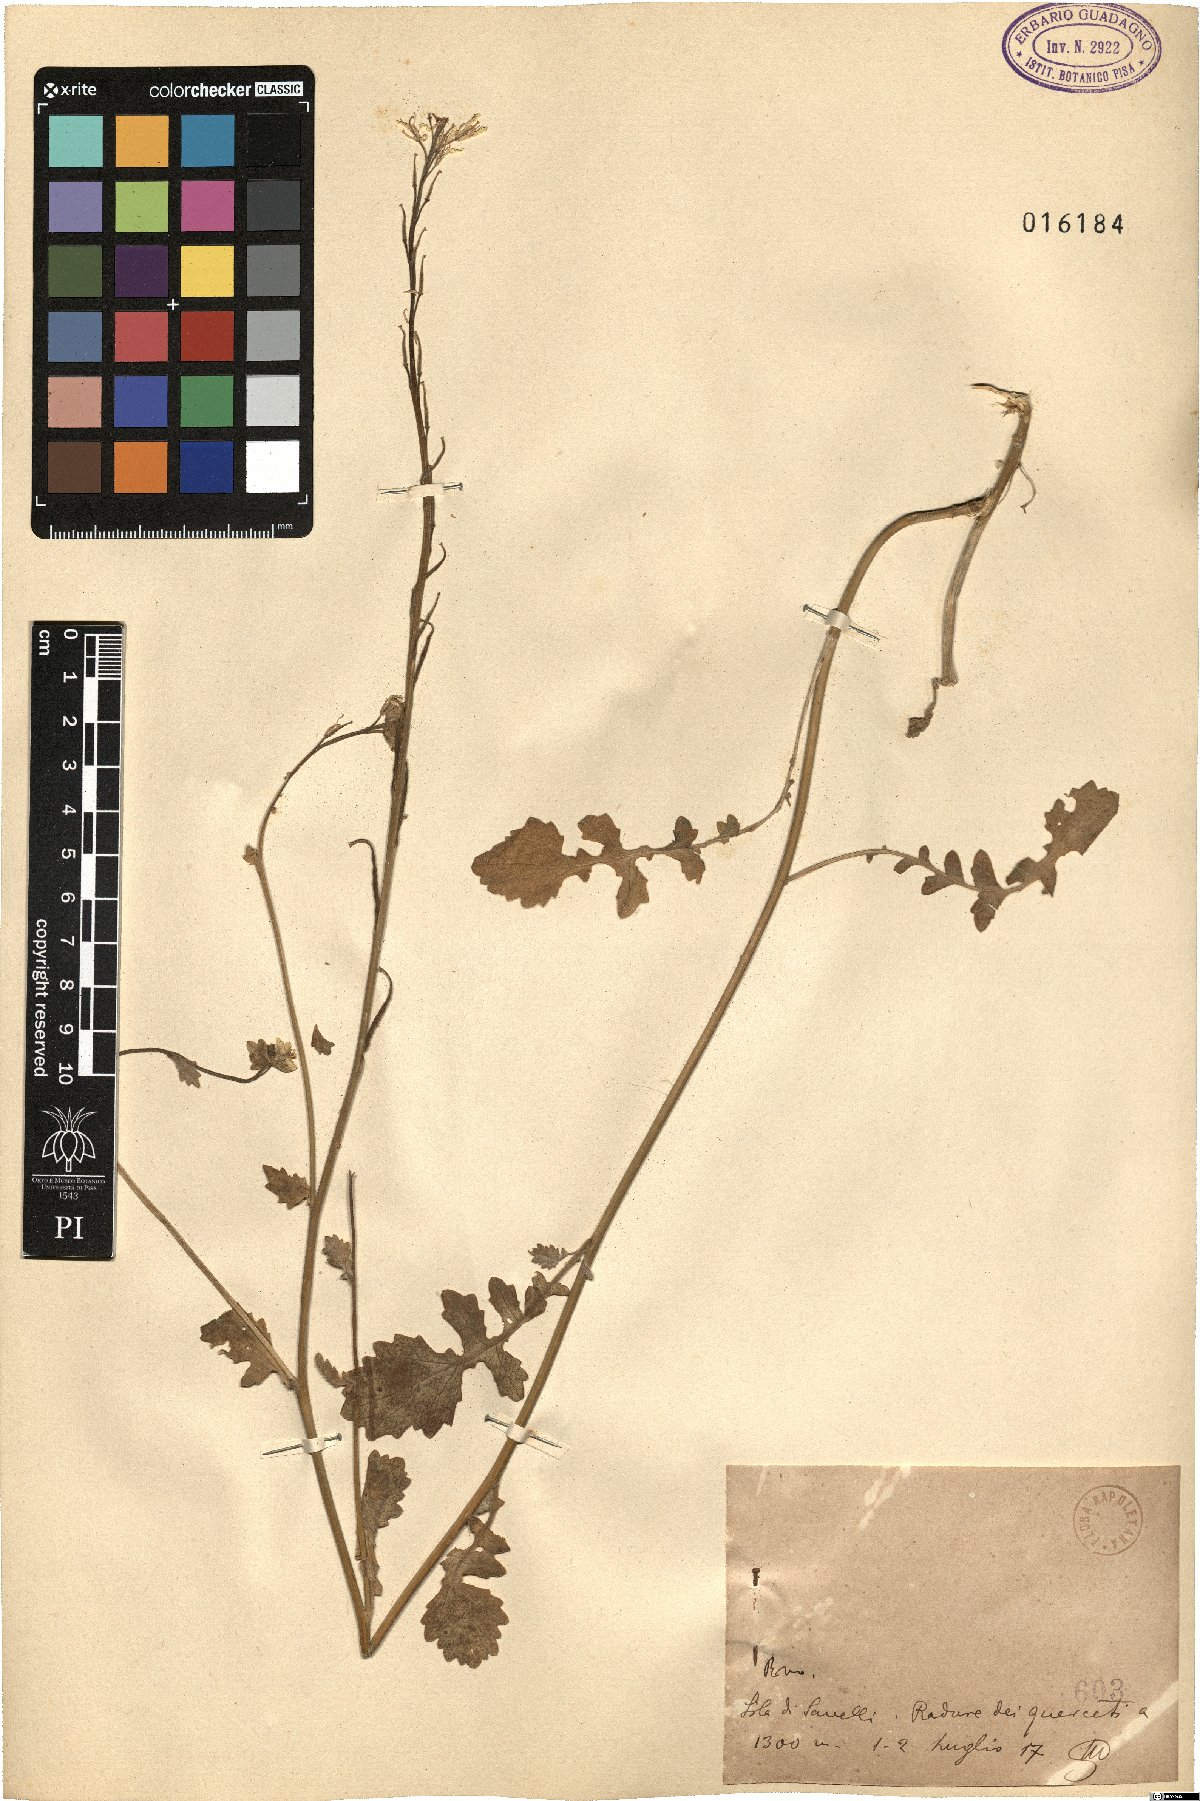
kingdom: Plantae
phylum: Tracheophyta
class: Magnoliopsida
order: Brassicales
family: Brassicaceae
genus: Brassica
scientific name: Brassica
